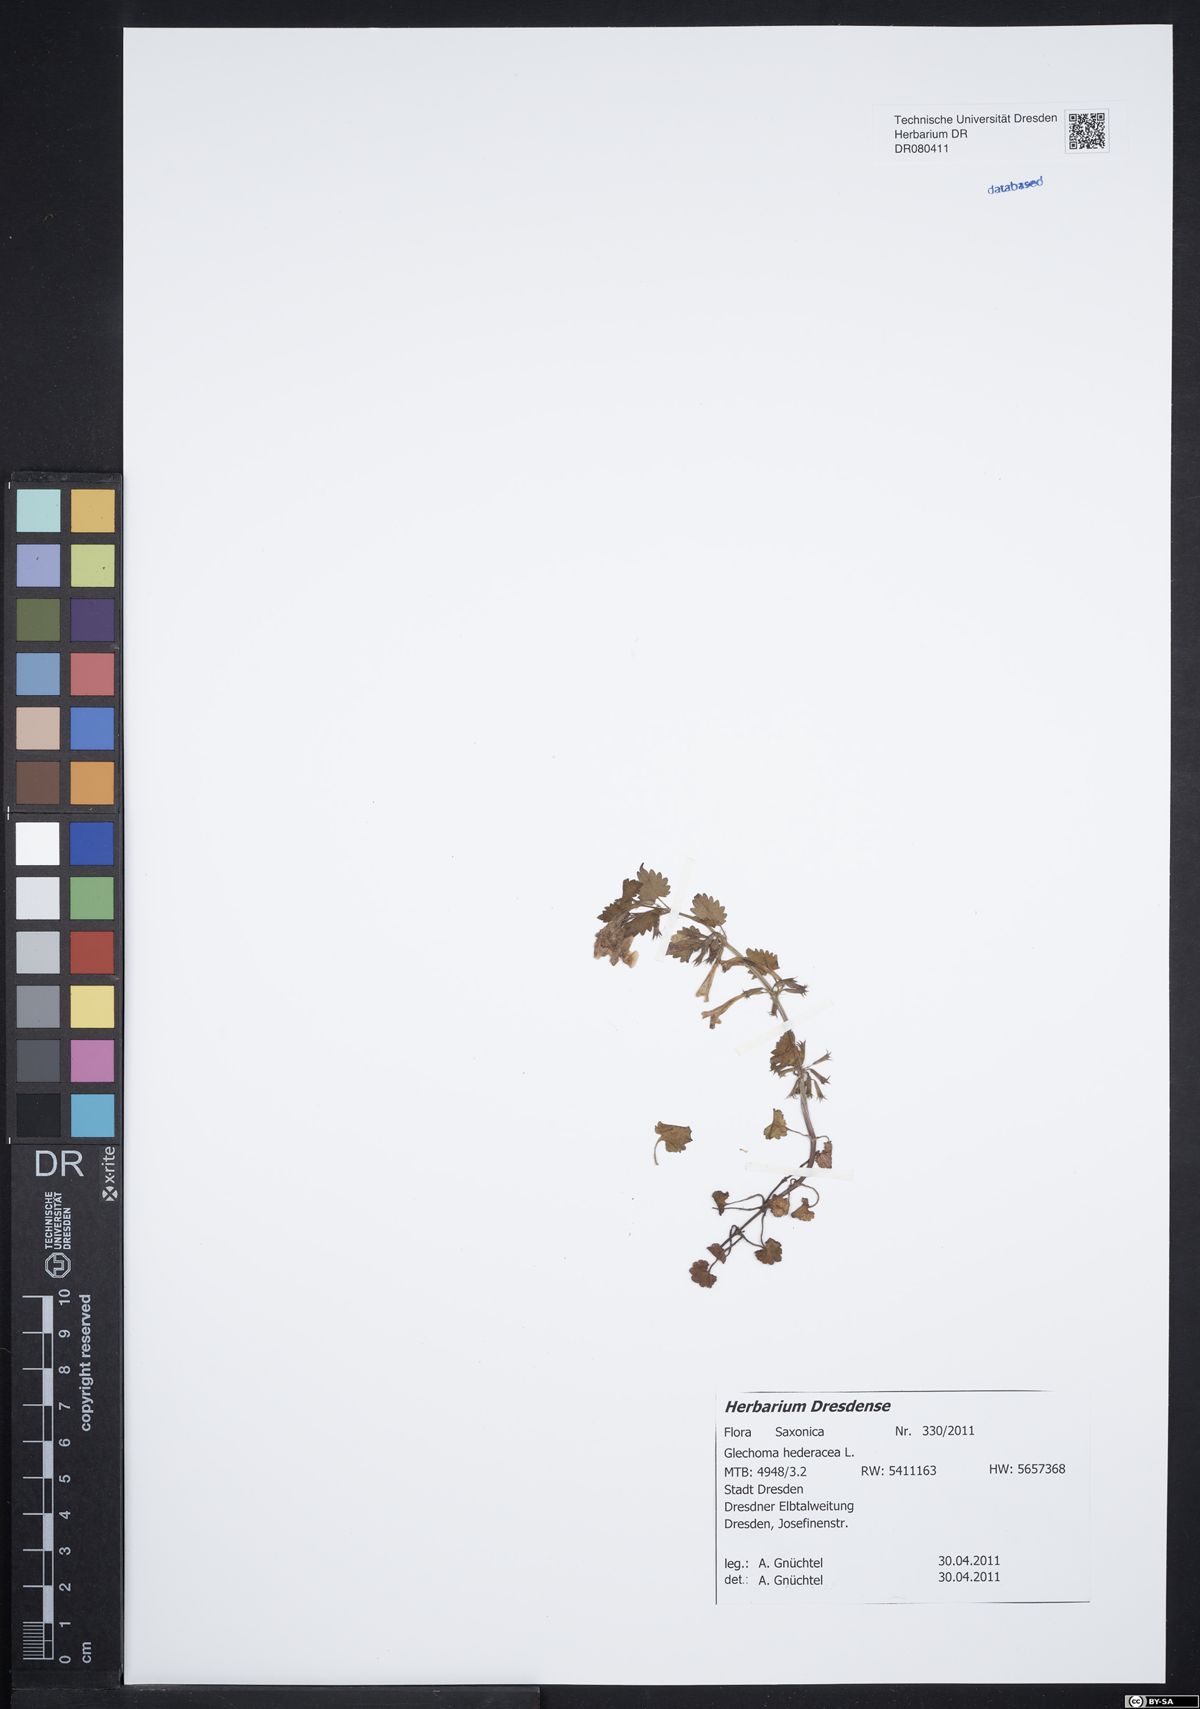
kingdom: Plantae
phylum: Tracheophyta
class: Magnoliopsida
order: Lamiales
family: Lamiaceae
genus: Glechoma
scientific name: Glechoma hederacea
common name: Ground ivy
